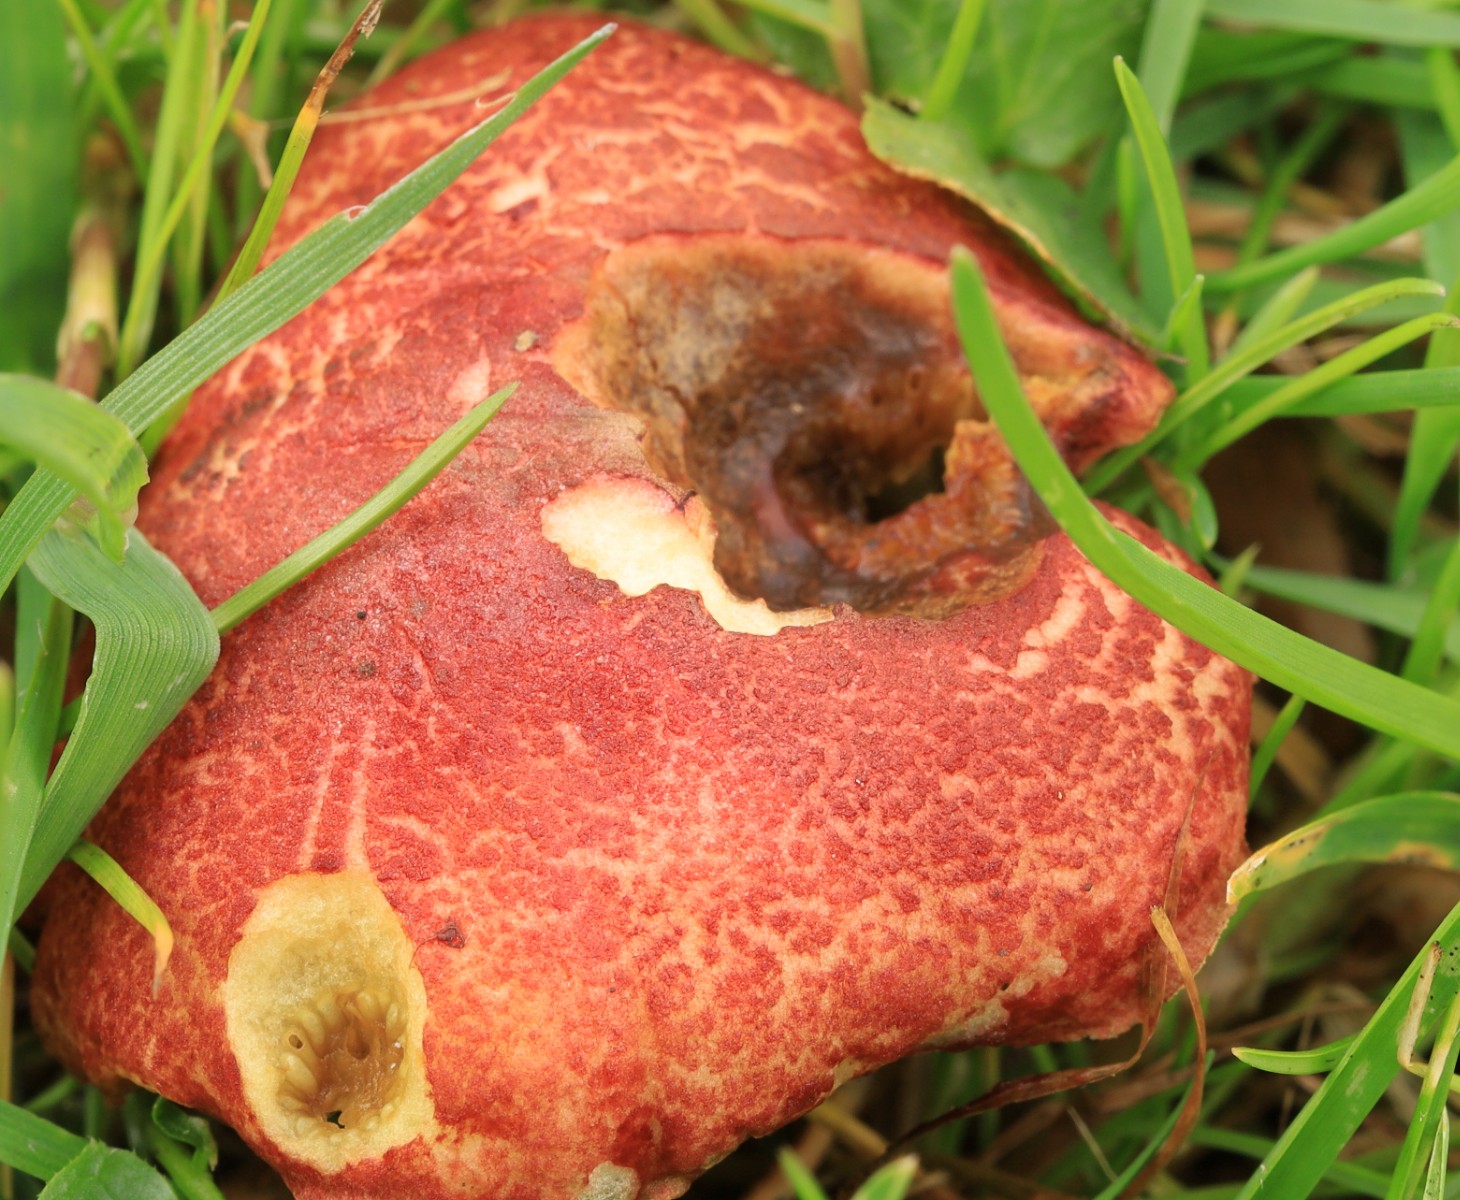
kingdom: Fungi
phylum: Basidiomycota
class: Agaricomycetes
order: Boletales
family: Boletaceae
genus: Hortiboletus
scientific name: Hortiboletus rubellus
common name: blodrød rørhat
